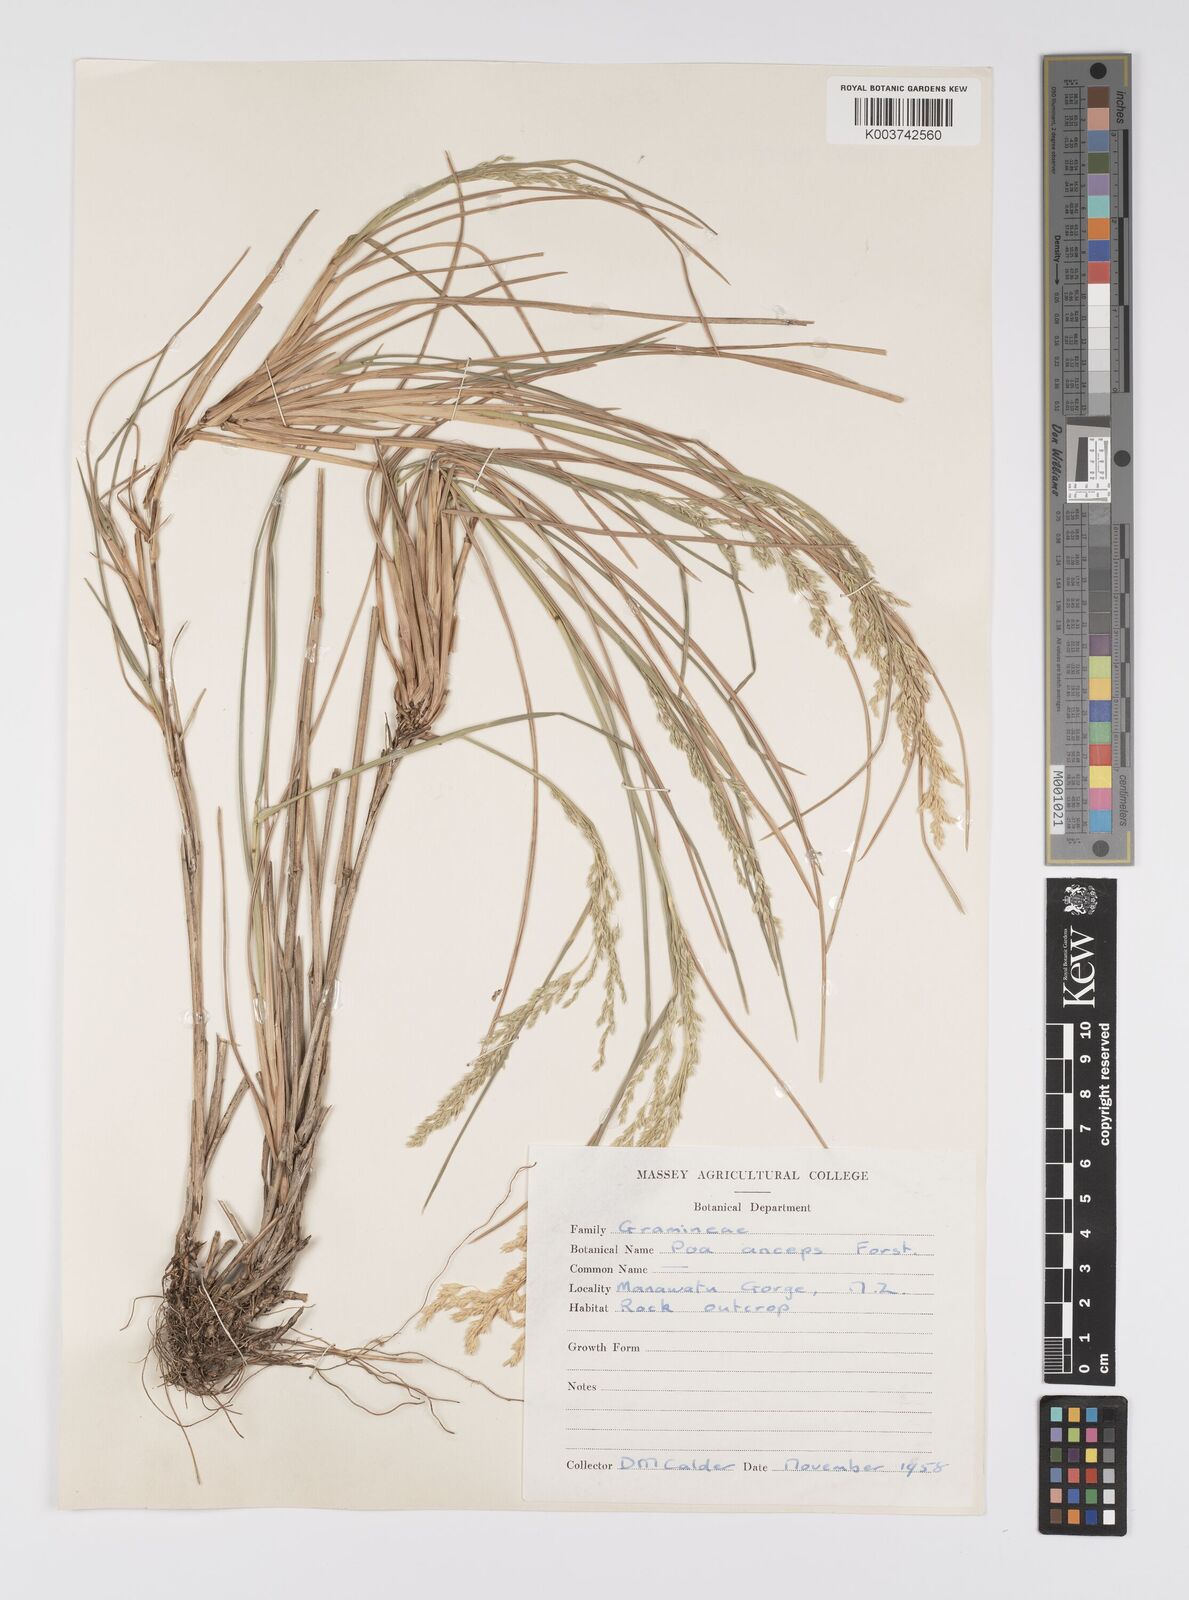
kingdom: Plantae
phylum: Tracheophyta
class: Liliopsida
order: Poales
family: Poaceae
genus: Poa
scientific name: Poa anceps
